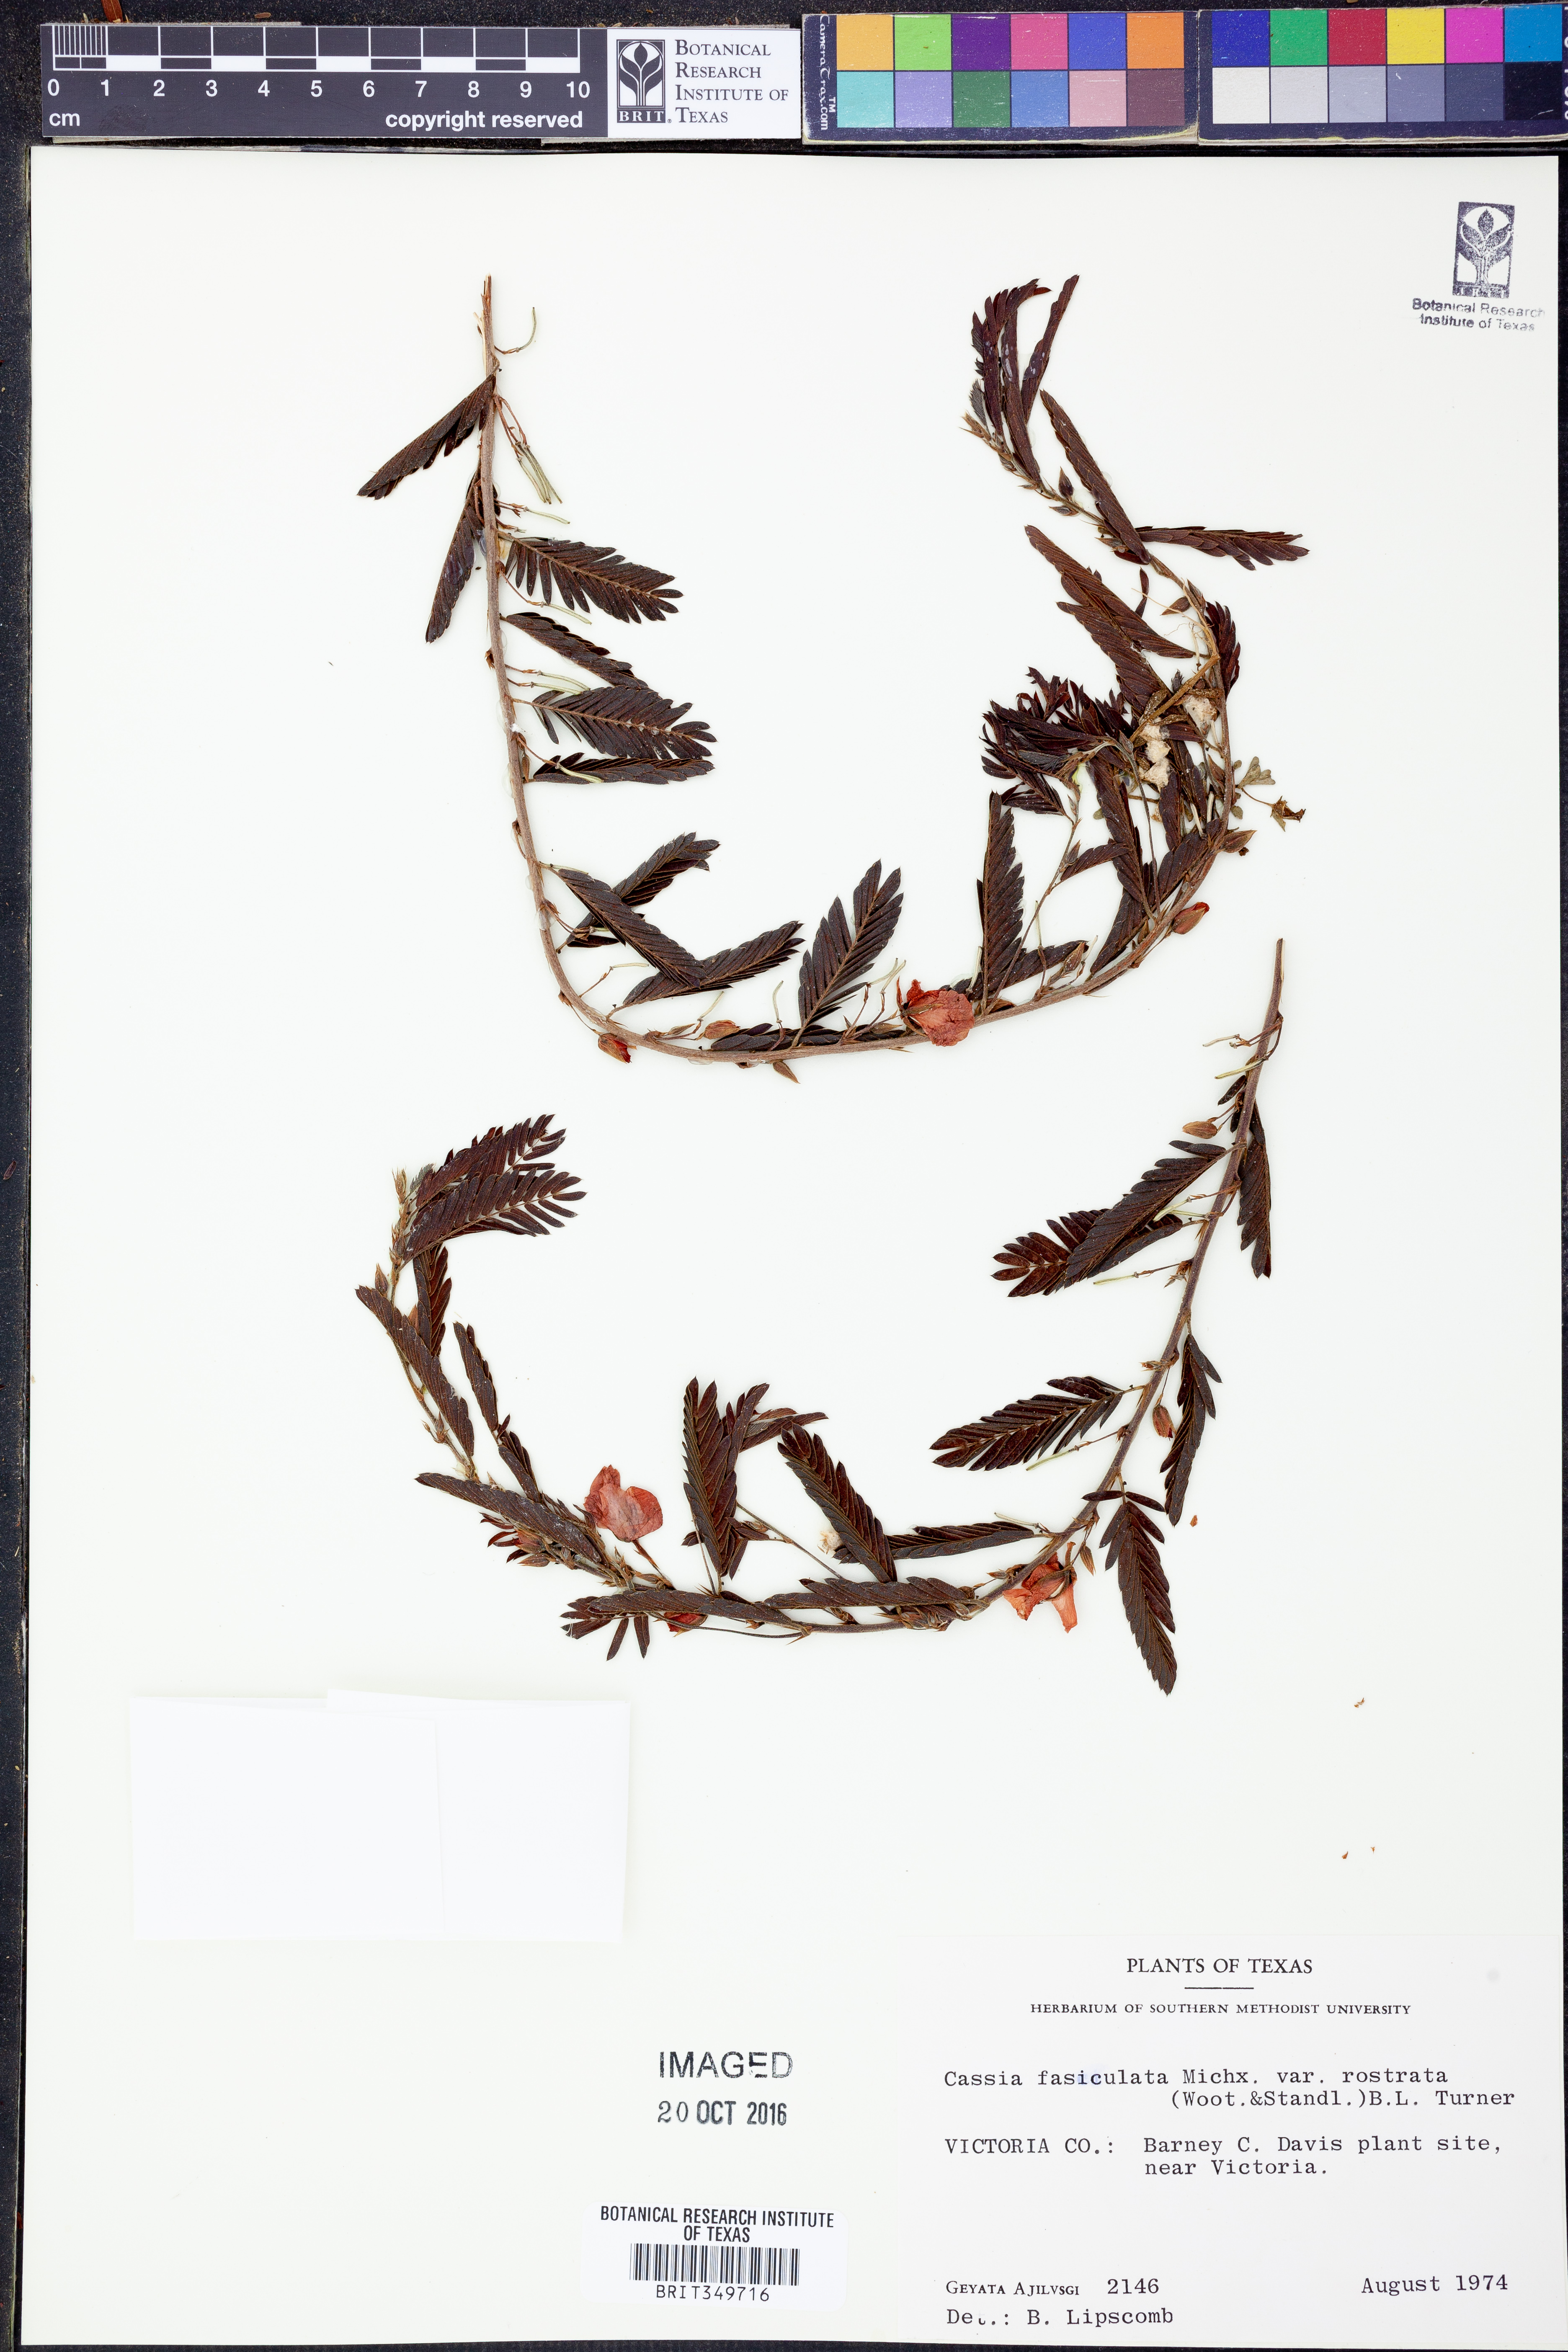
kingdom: Plantae
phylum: Tracheophyta
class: Magnoliopsida
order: Fabales
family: Fabaceae
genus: Chamaecrista
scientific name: Chamaecrista fasciculata
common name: Golden cassia
